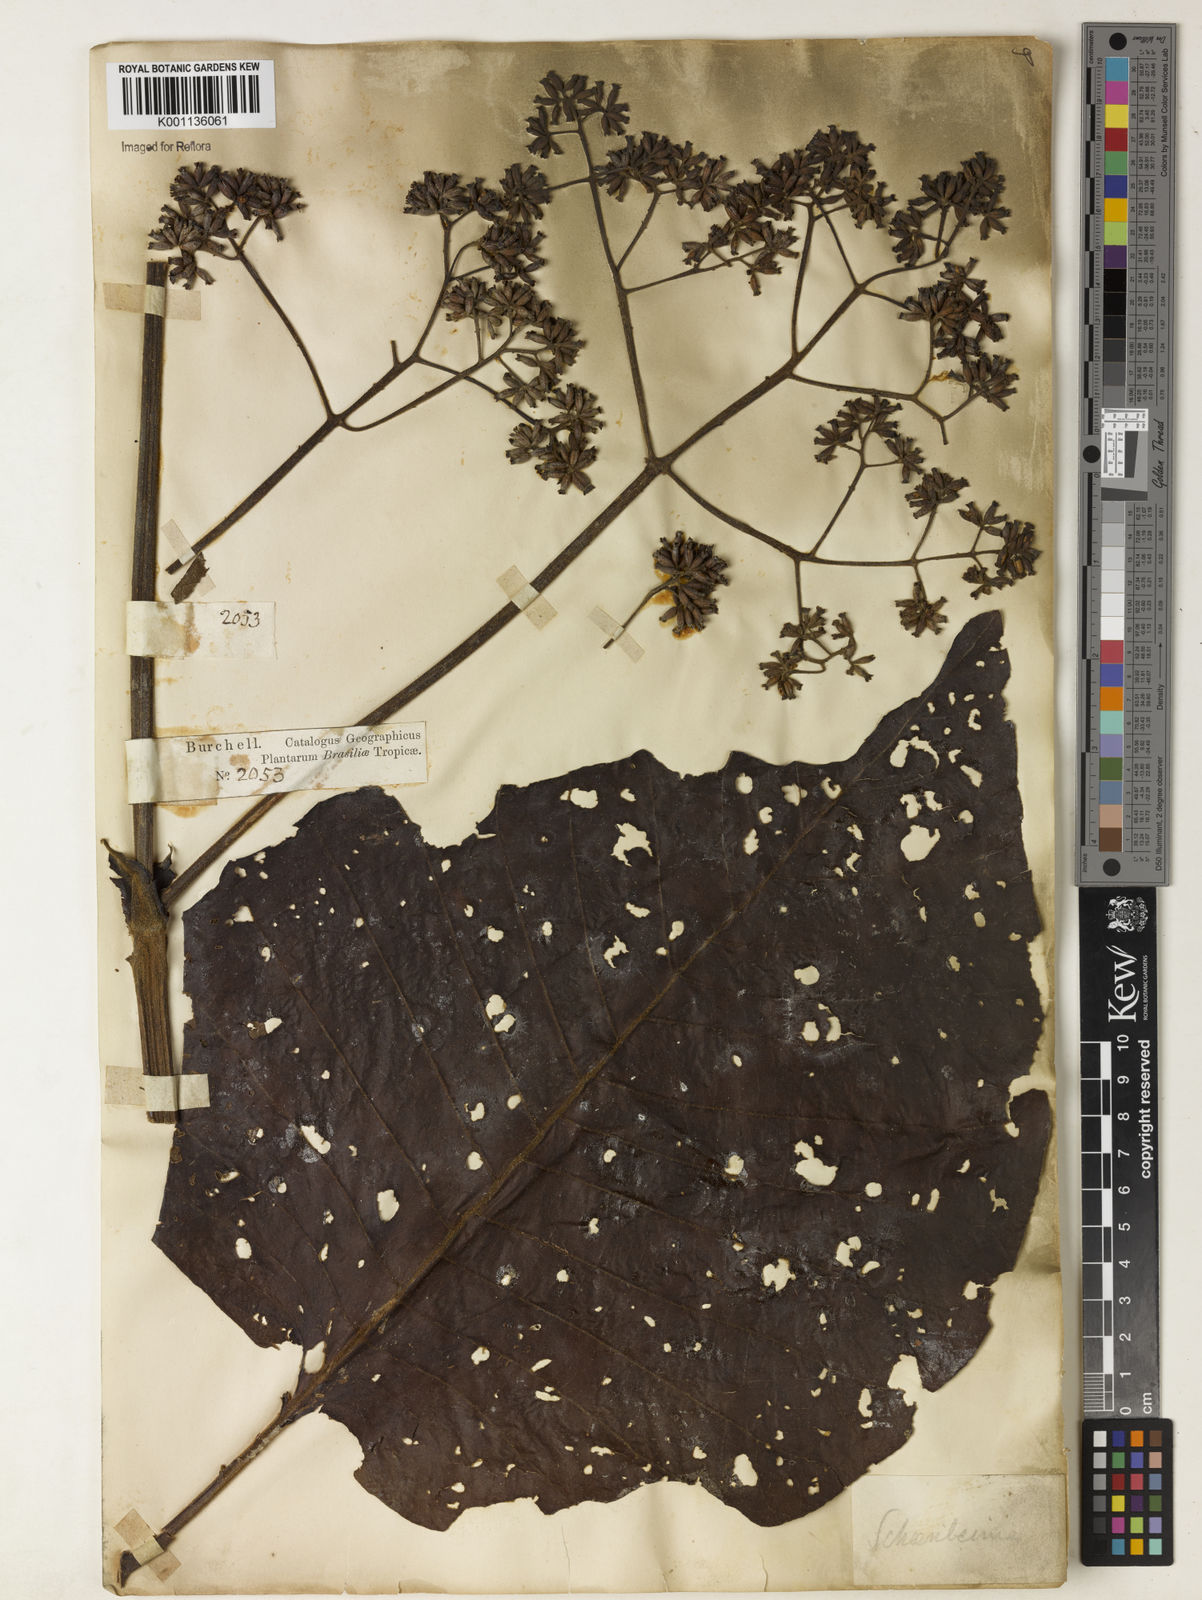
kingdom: Plantae
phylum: Tracheophyta
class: Magnoliopsida
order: Gentianales
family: Rubiaceae
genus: Bathysa
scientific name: Bathysa australis
